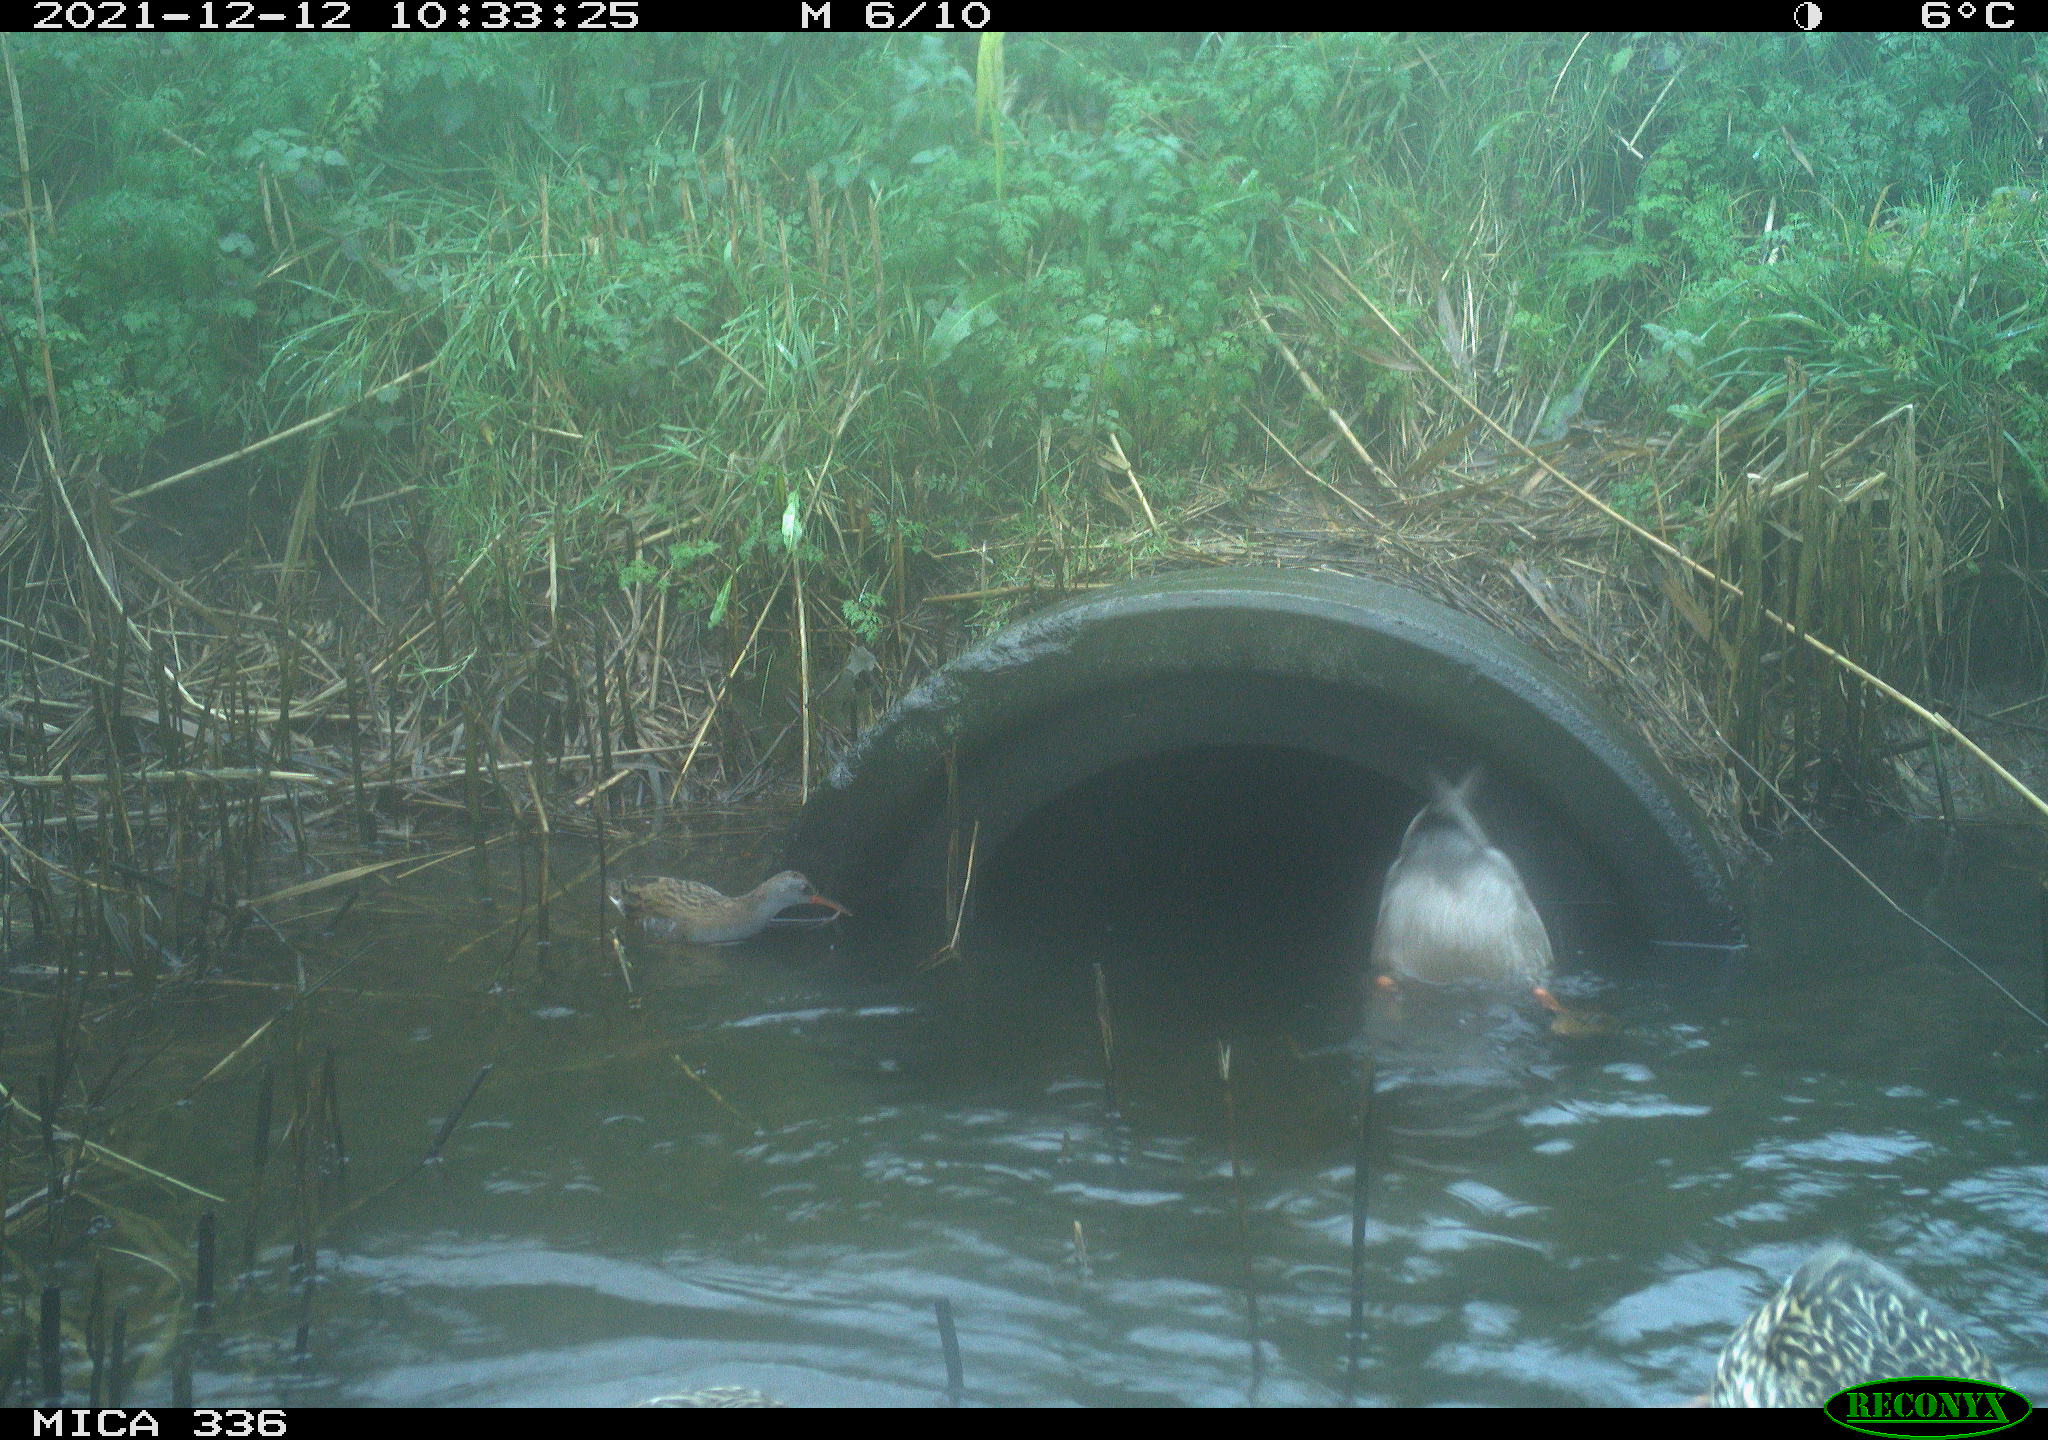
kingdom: Animalia
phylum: Chordata
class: Aves
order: Gruiformes
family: Rallidae
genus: Gallinula
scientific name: Gallinula chloropus
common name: Common moorhen
